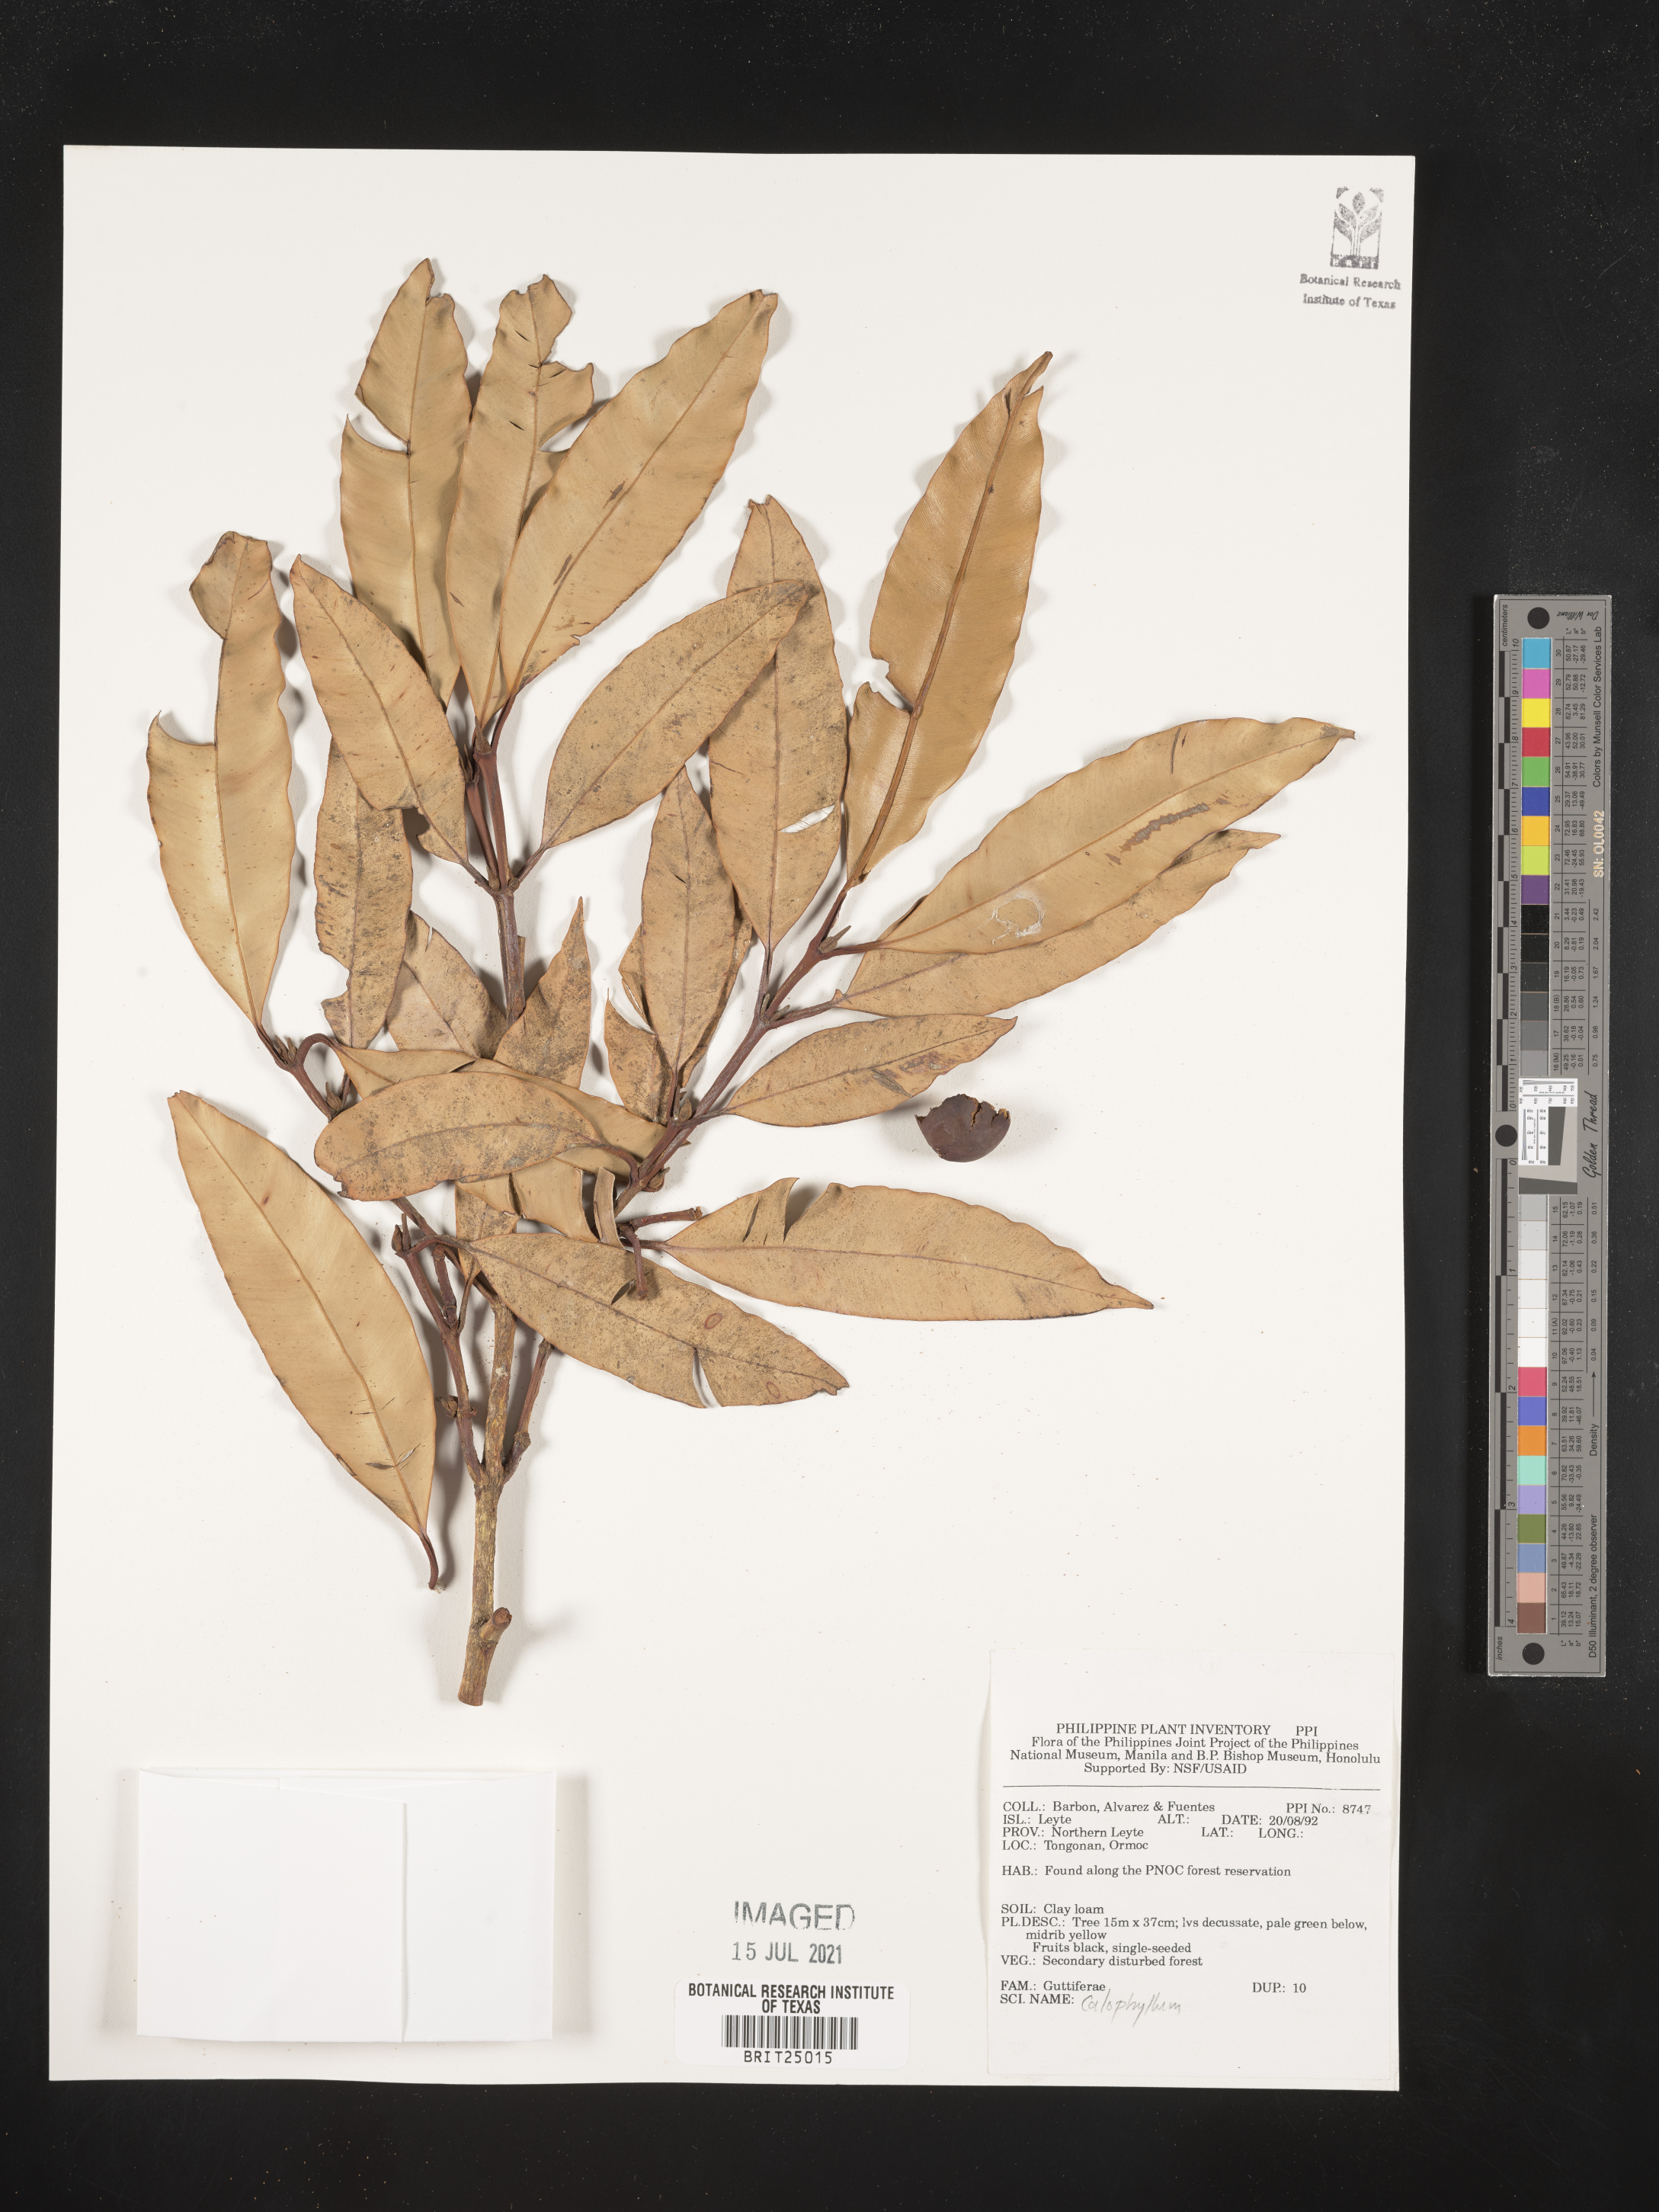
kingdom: Plantae
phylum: Tracheophyta
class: Magnoliopsida
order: Malpighiales
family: Calophyllaceae
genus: Calophyllum
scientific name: Calophyllum
